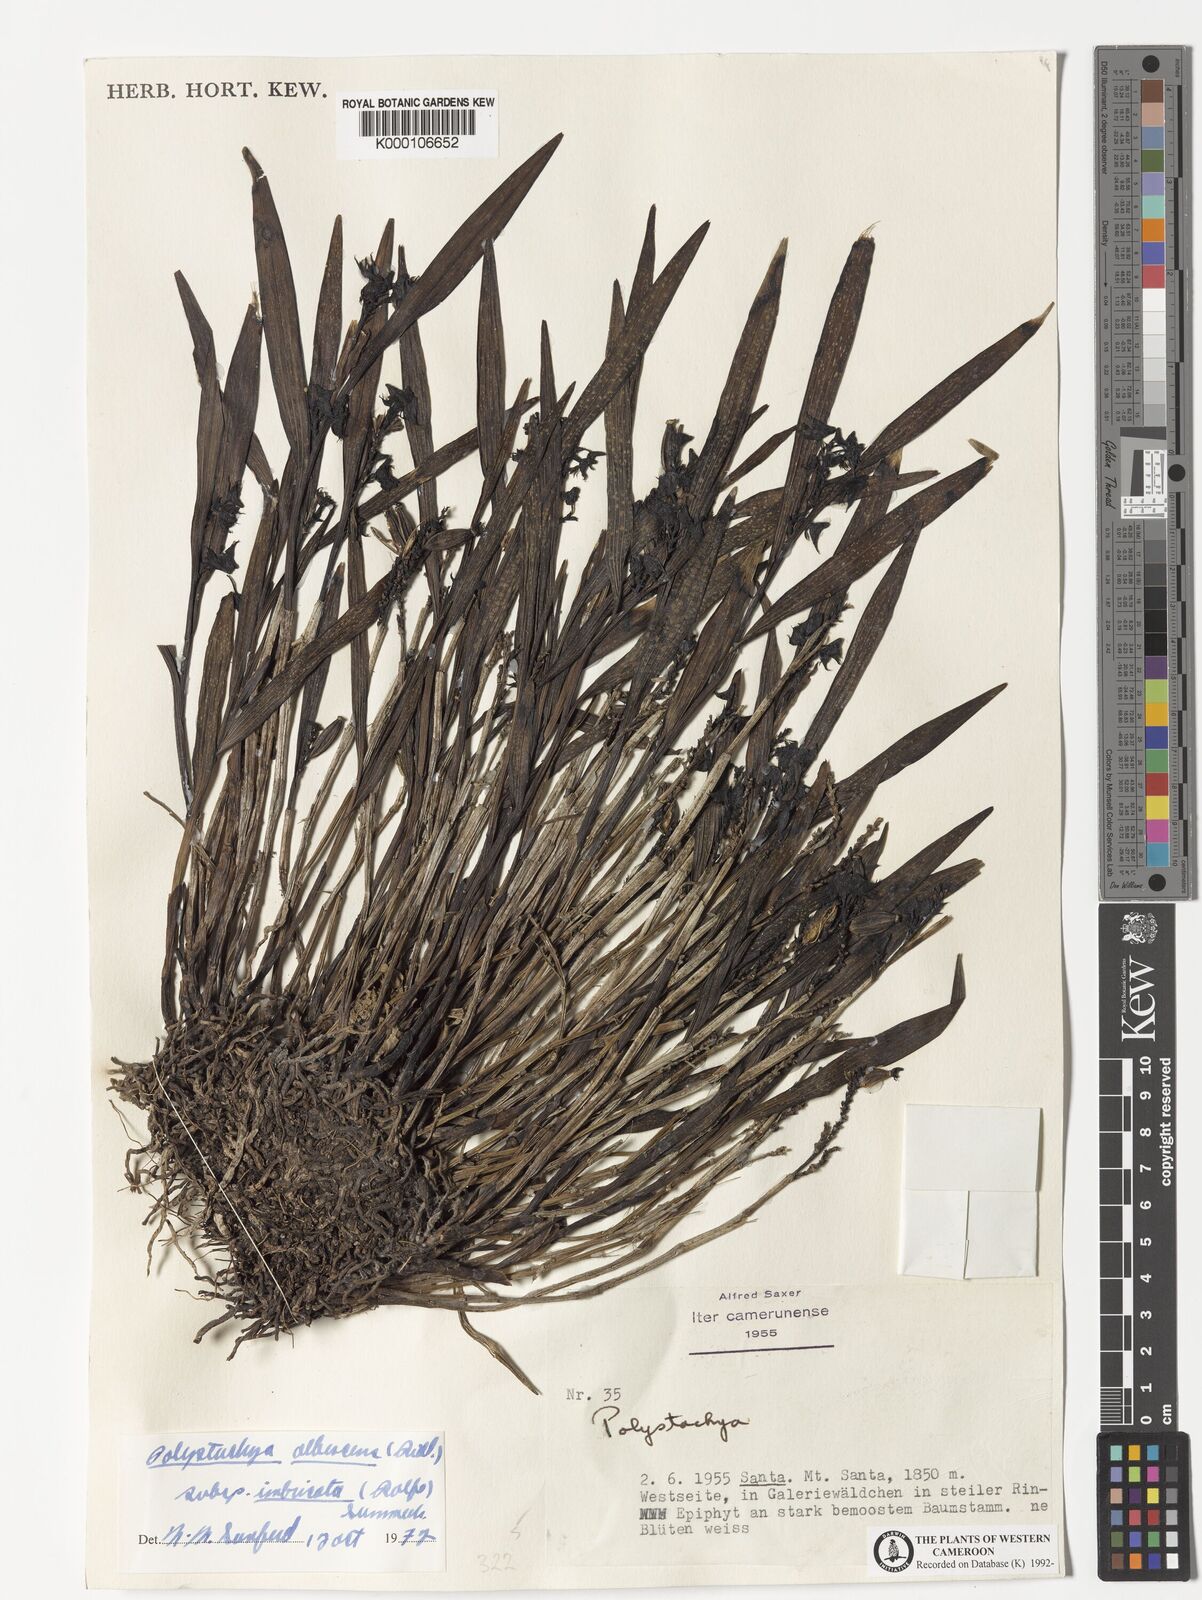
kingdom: Plantae
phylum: Tracheophyta
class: Liliopsida
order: Asparagales
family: Orchidaceae
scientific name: Orchidaceae
